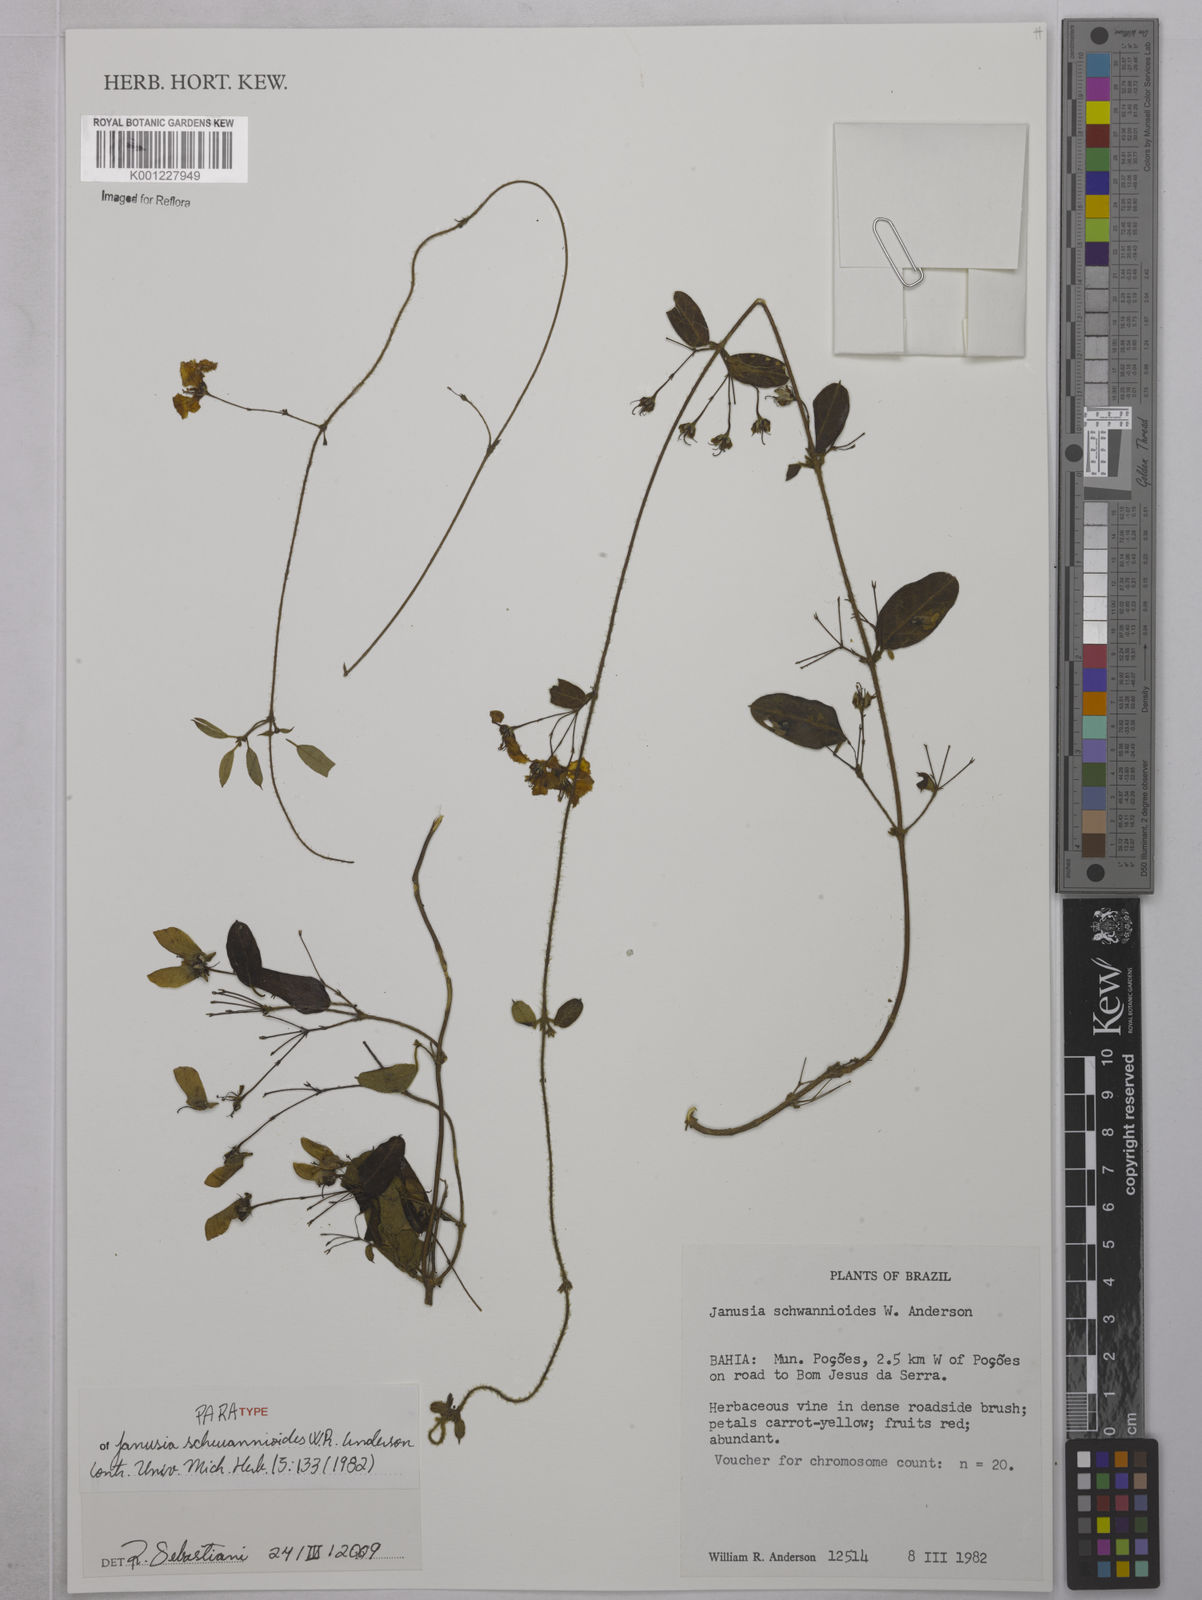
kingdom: Plantae
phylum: Tracheophyta
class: Magnoliopsida
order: Malpighiales
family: Malpighiaceae
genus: Janusia
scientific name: Janusia schwannioides
